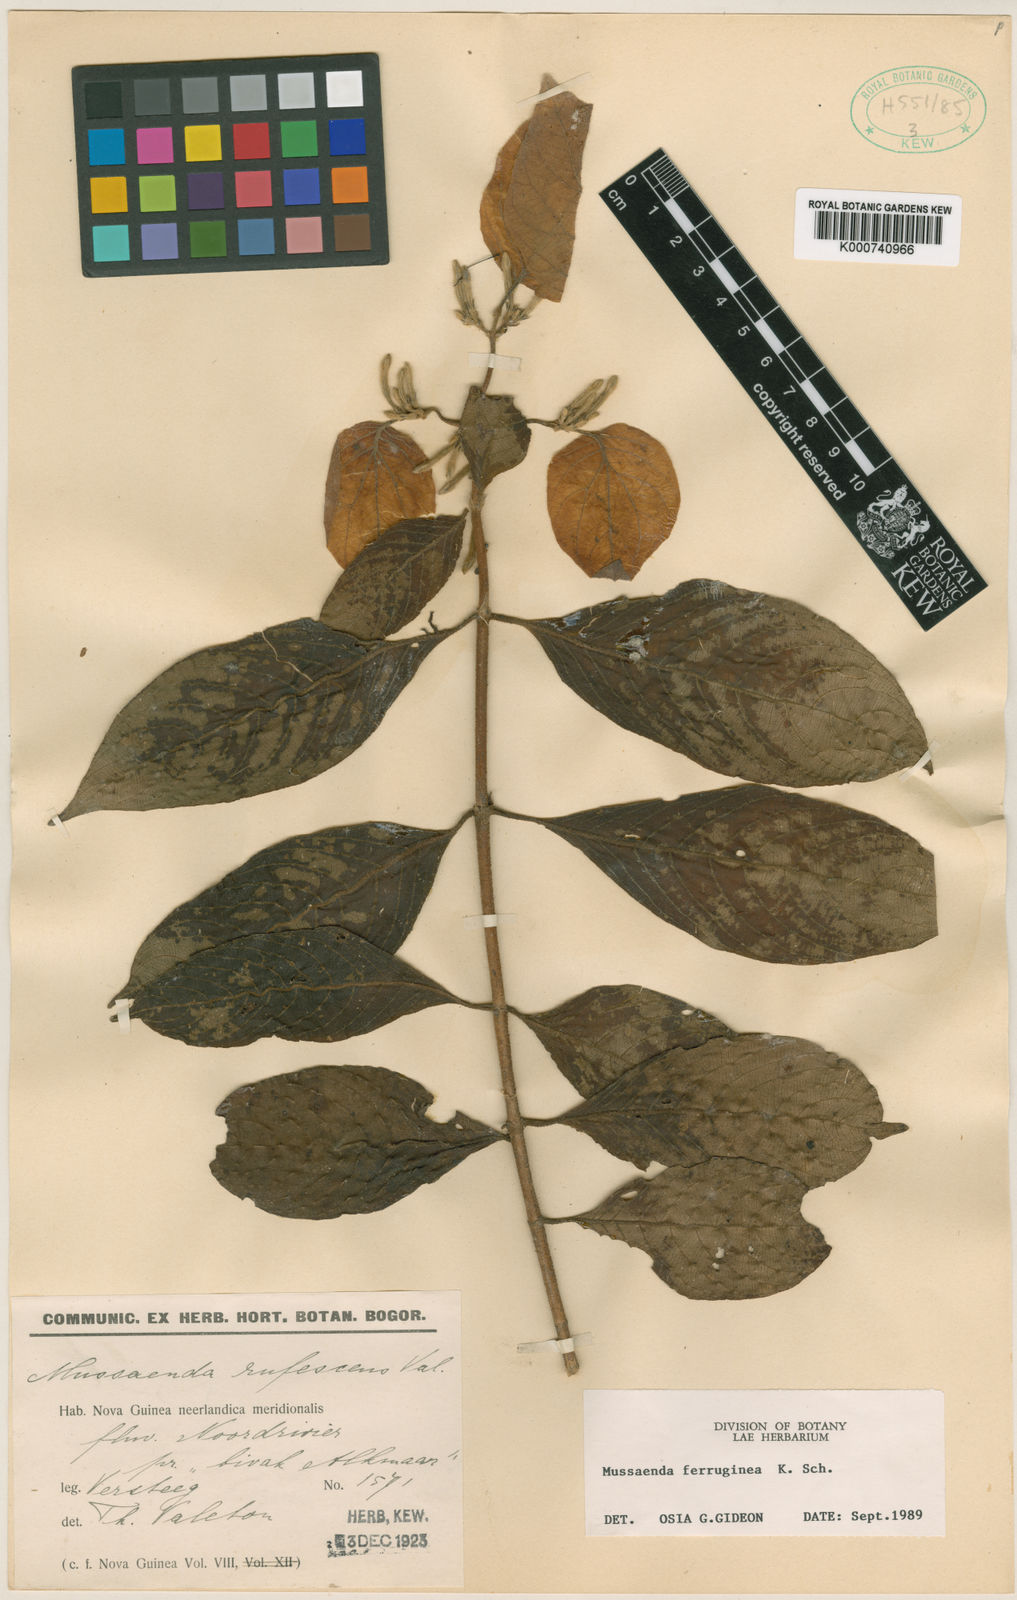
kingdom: Plantae
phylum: Tracheophyta
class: Magnoliopsida
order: Gentianales
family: Rubiaceae
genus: Mussaenda
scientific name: Mussaenda ferruginea
